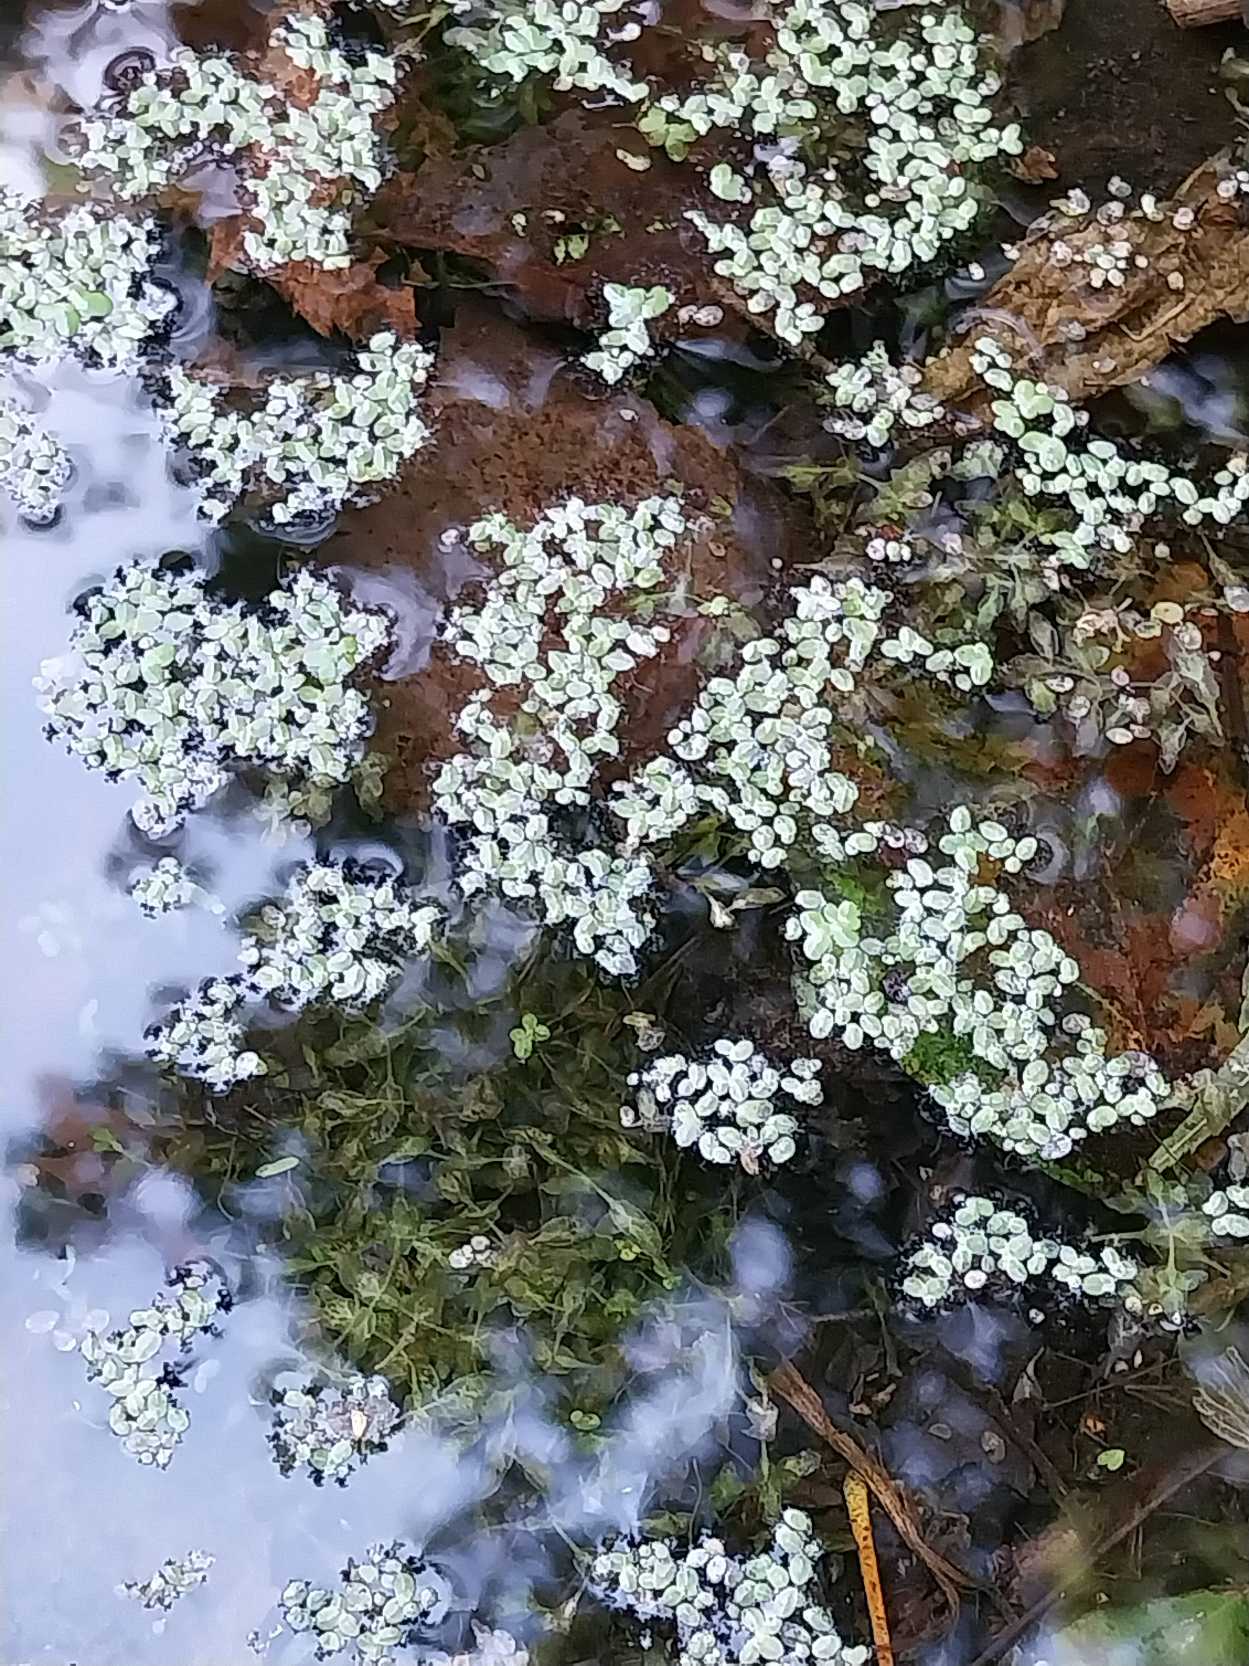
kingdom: Plantae
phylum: Tracheophyta
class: Liliopsida
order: Alismatales
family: Araceae
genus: Lemna
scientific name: Lemna minuta
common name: Enstrenget andemad
